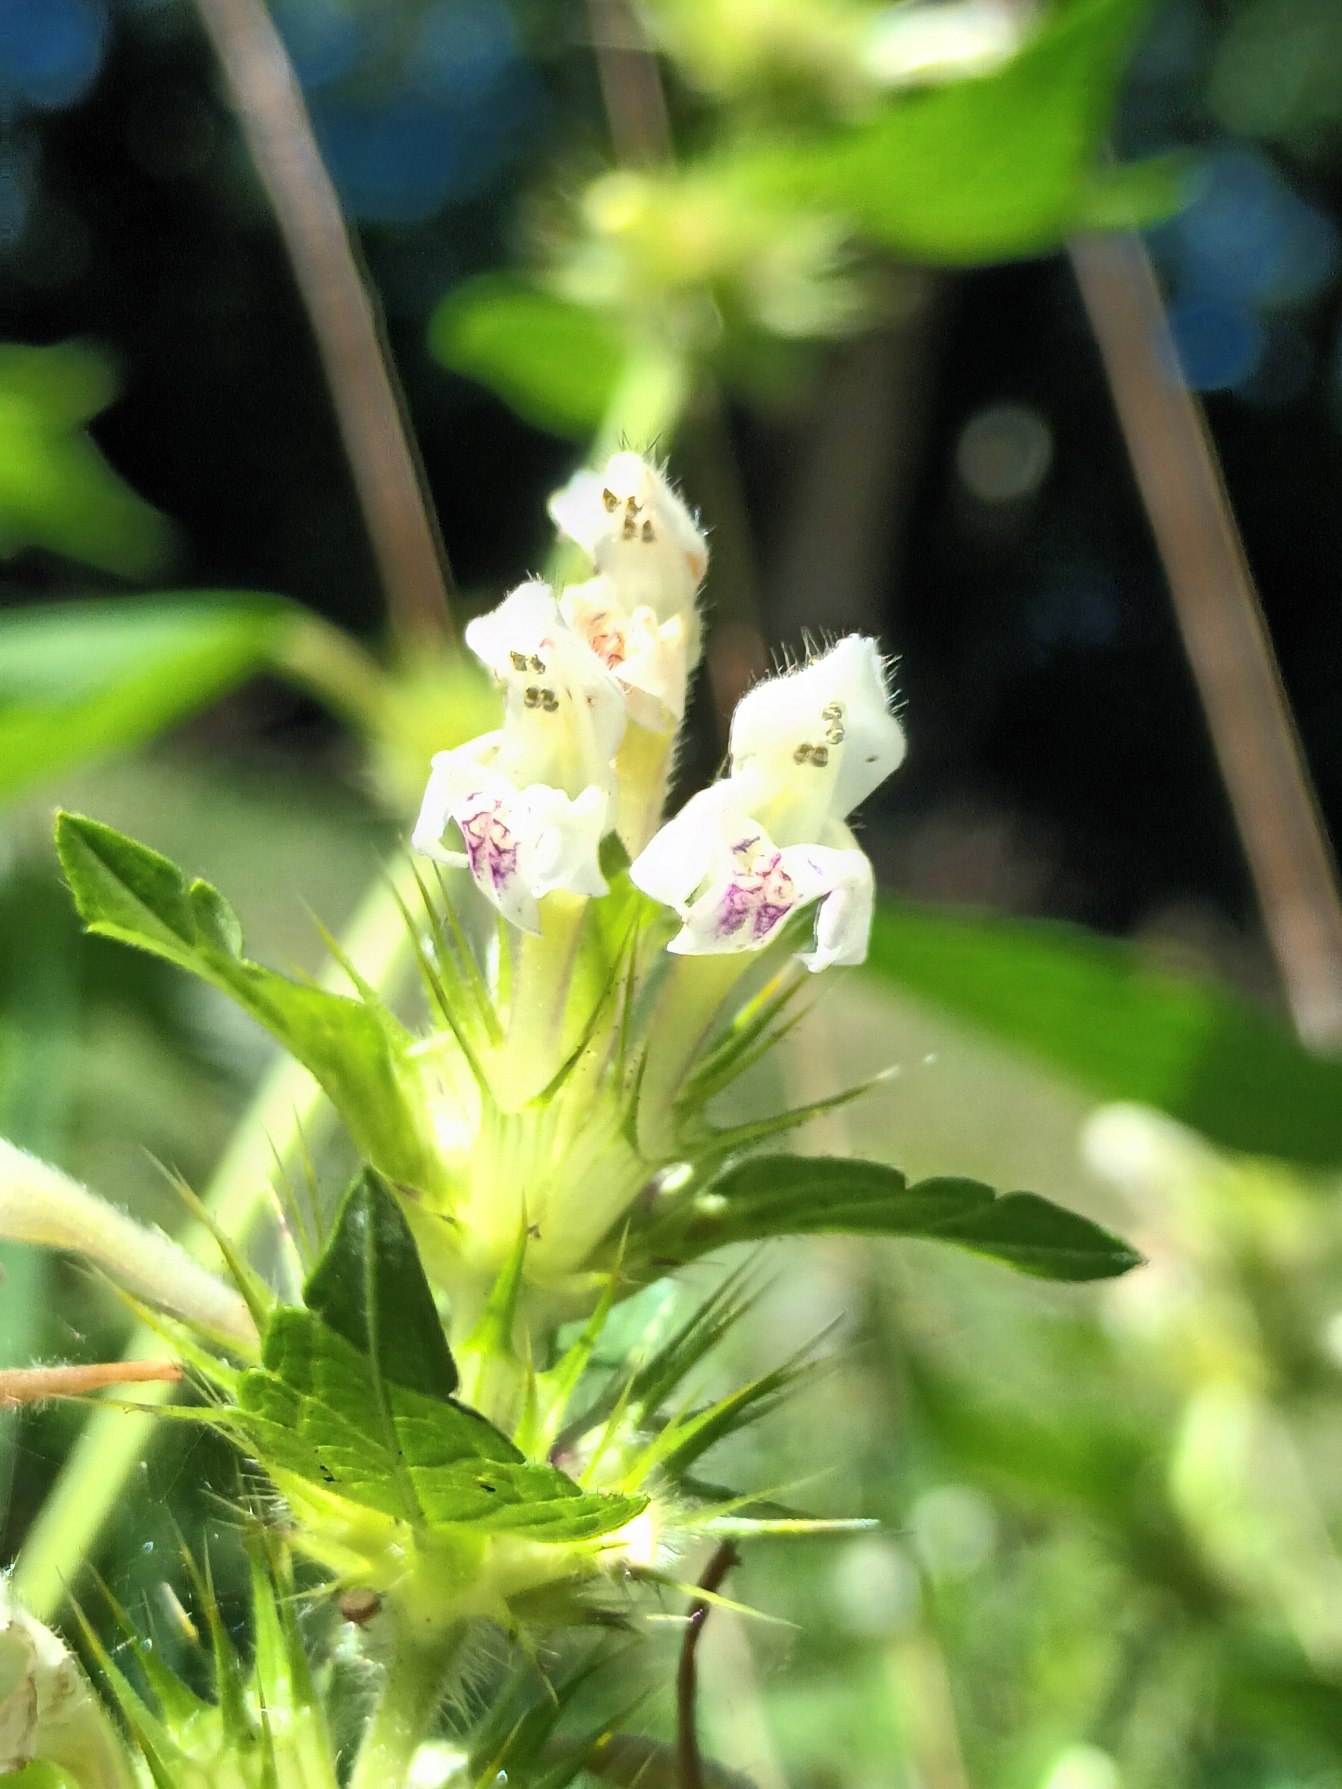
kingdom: Plantae
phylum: Tracheophyta
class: Magnoliopsida
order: Lamiales
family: Lamiaceae
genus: Galeopsis
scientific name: Galeopsis tetrahit
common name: Almindelig hanekro
